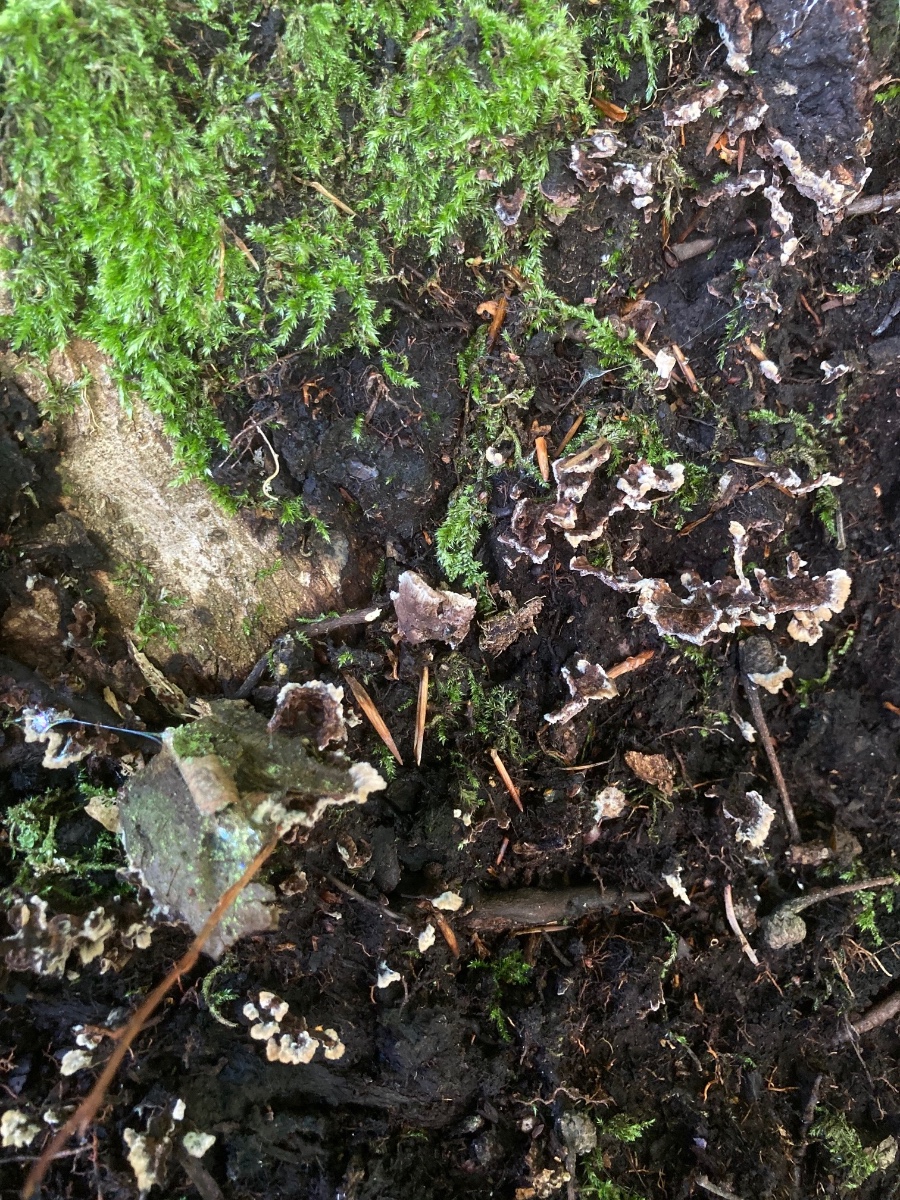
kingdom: Fungi
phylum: Basidiomycota
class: Agaricomycetes
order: Thelephorales
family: Thelephoraceae
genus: Thelephora
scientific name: Thelephora terrestris
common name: fliget frynsesvamp
